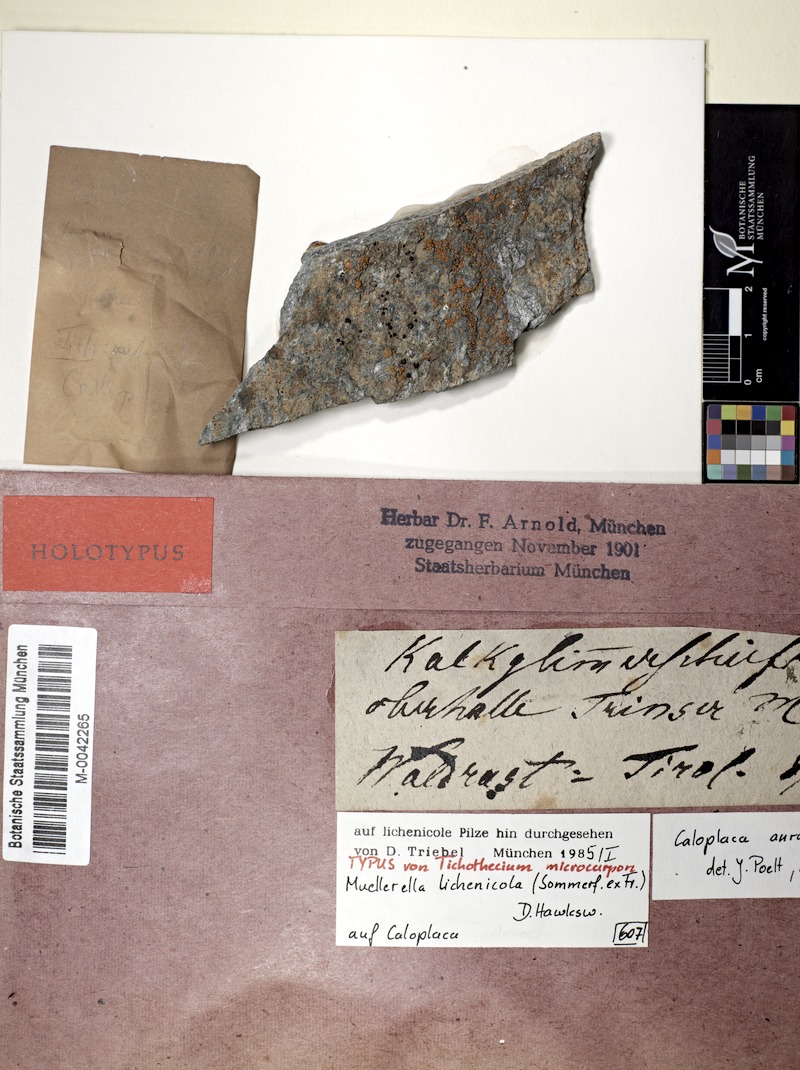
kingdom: Fungi
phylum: Ascomycota
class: Eurotiomycetes
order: Verrucariales
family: Verrucariaceae
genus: Muellerella
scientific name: Muellerella lichenicola
